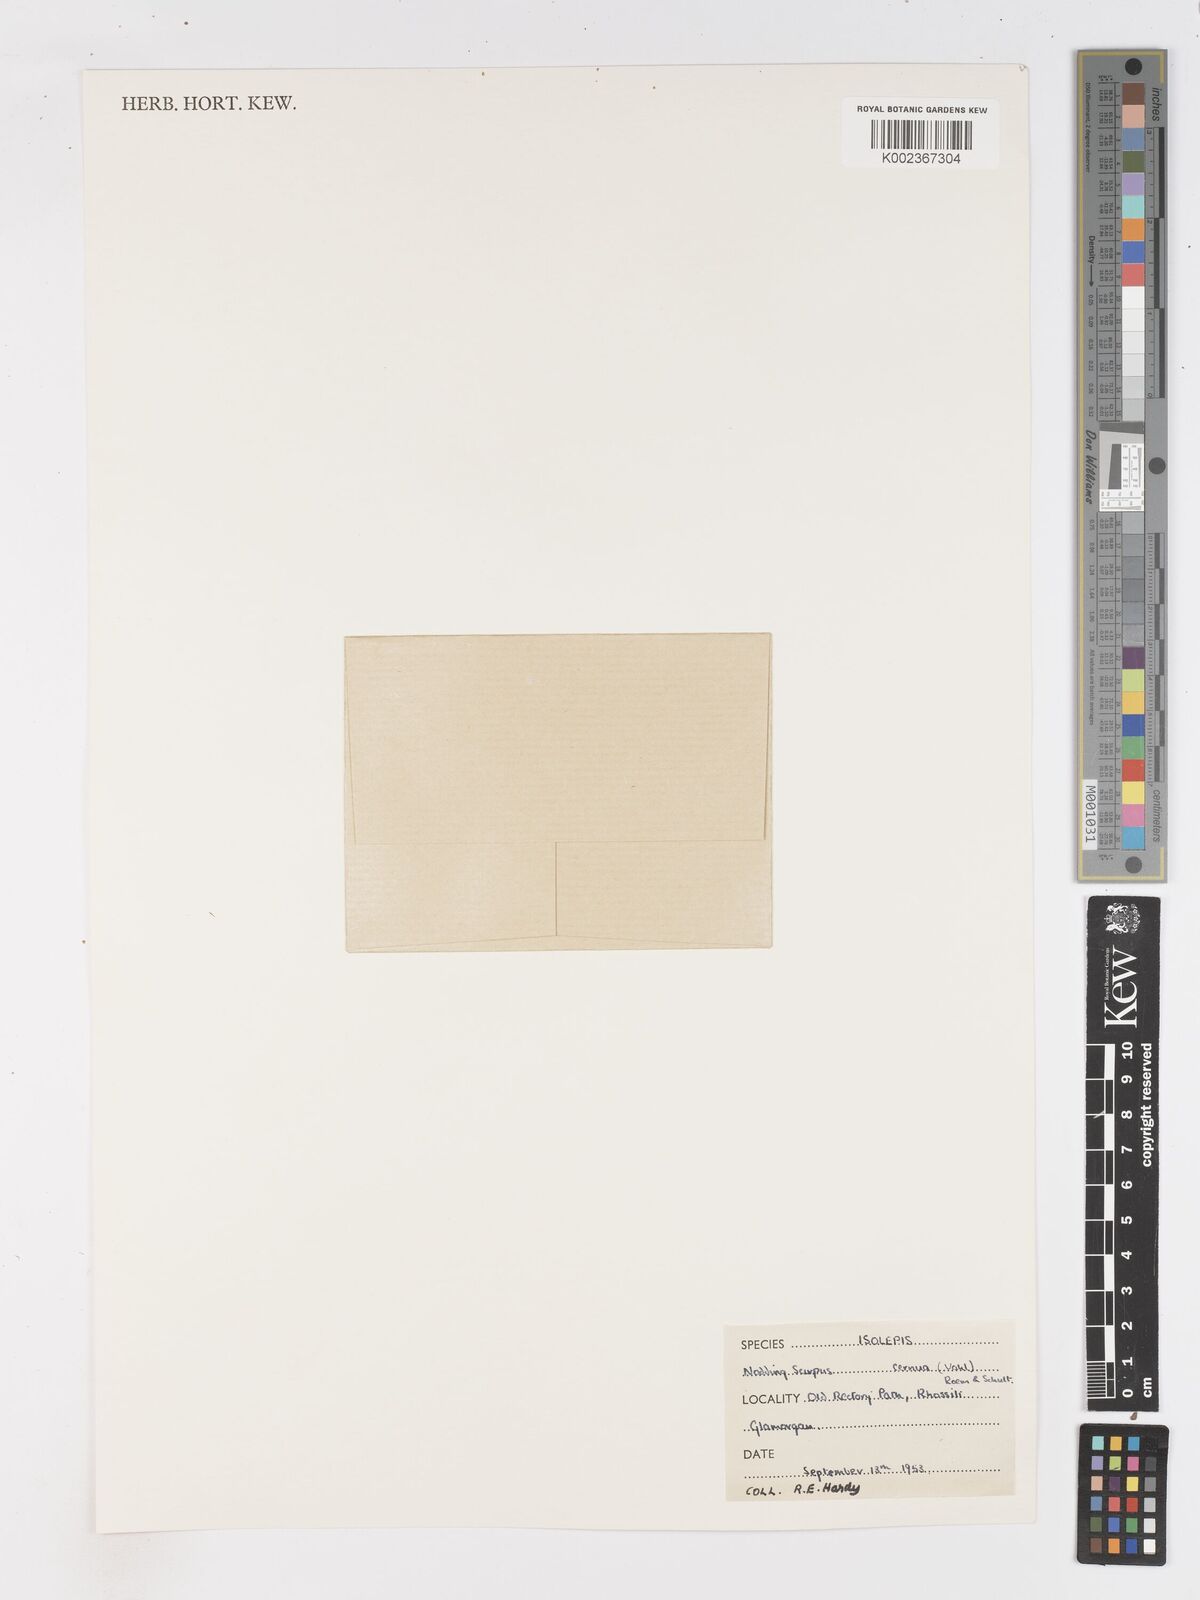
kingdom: Plantae
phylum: Tracheophyta
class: Liliopsida
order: Poales
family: Cyperaceae
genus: Isolepis
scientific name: Isolepis cernua
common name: Slender club-rush
